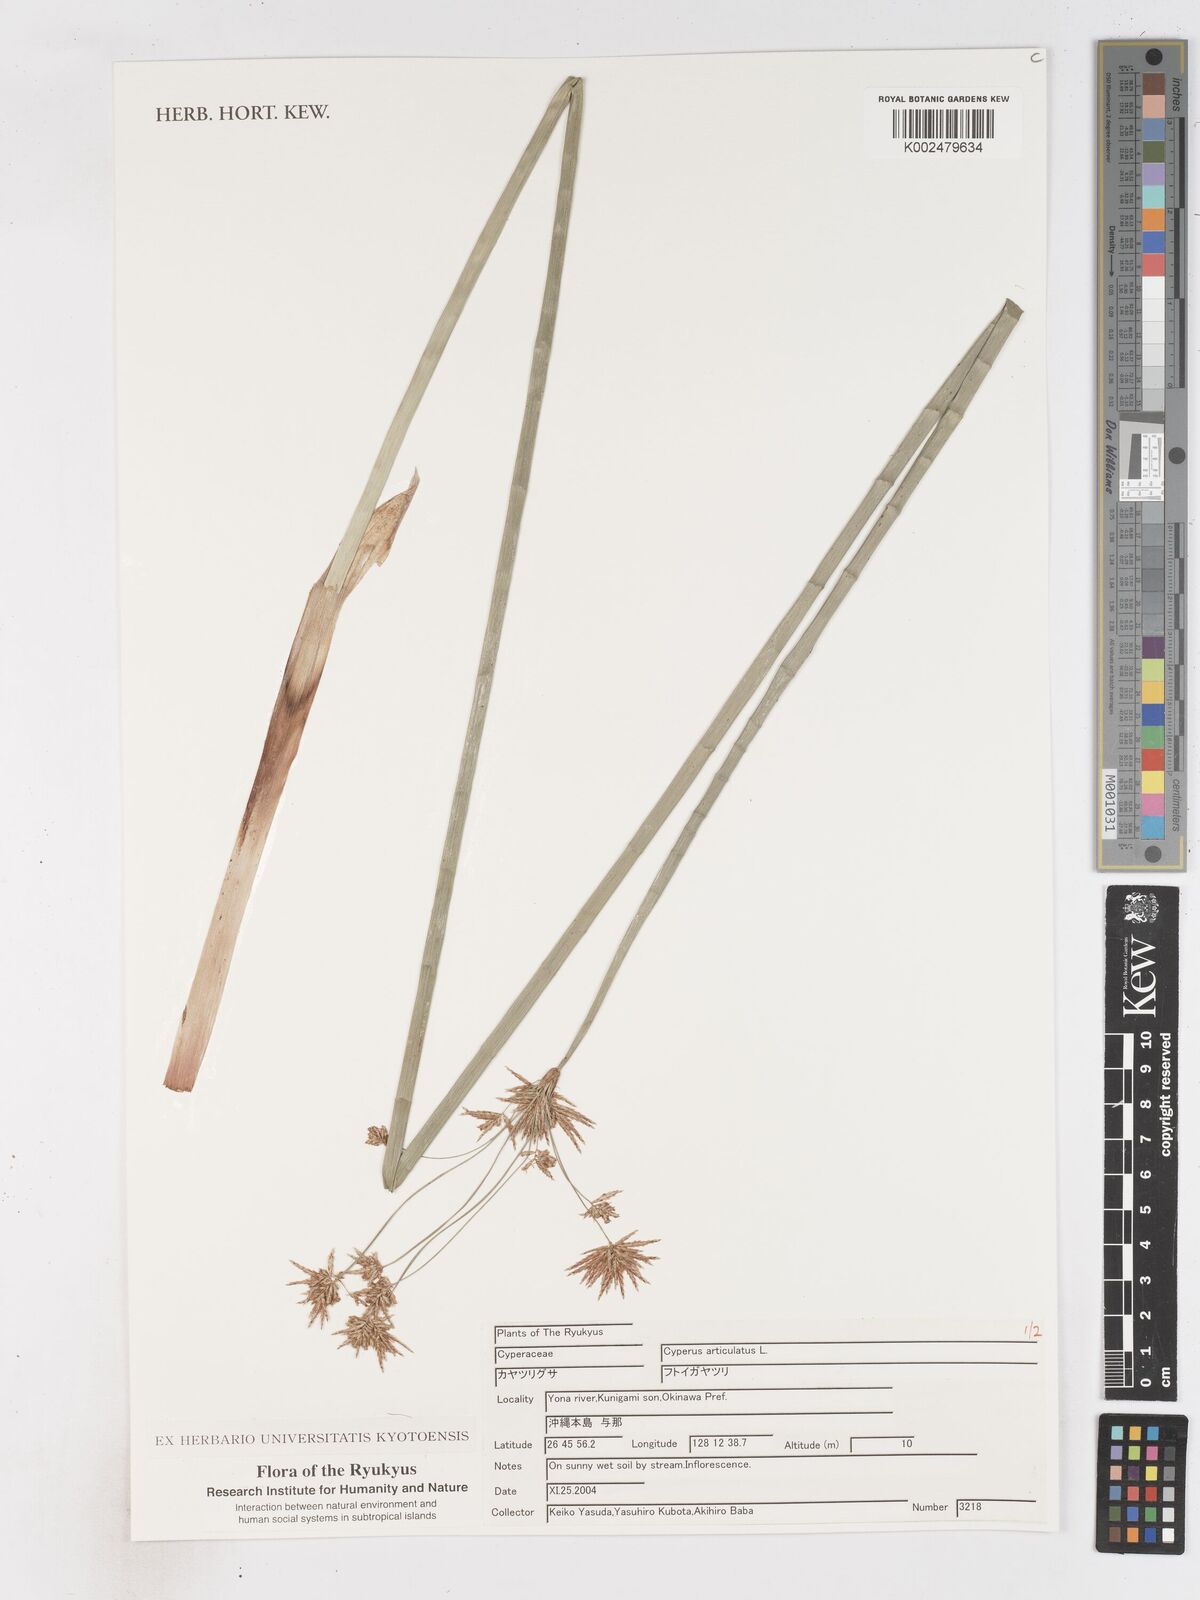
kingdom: Plantae
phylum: Tracheophyta
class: Liliopsida
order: Poales
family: Cyperaceae
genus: Cyperus
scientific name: Cyperus articulatus
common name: Jointed flatsedge
